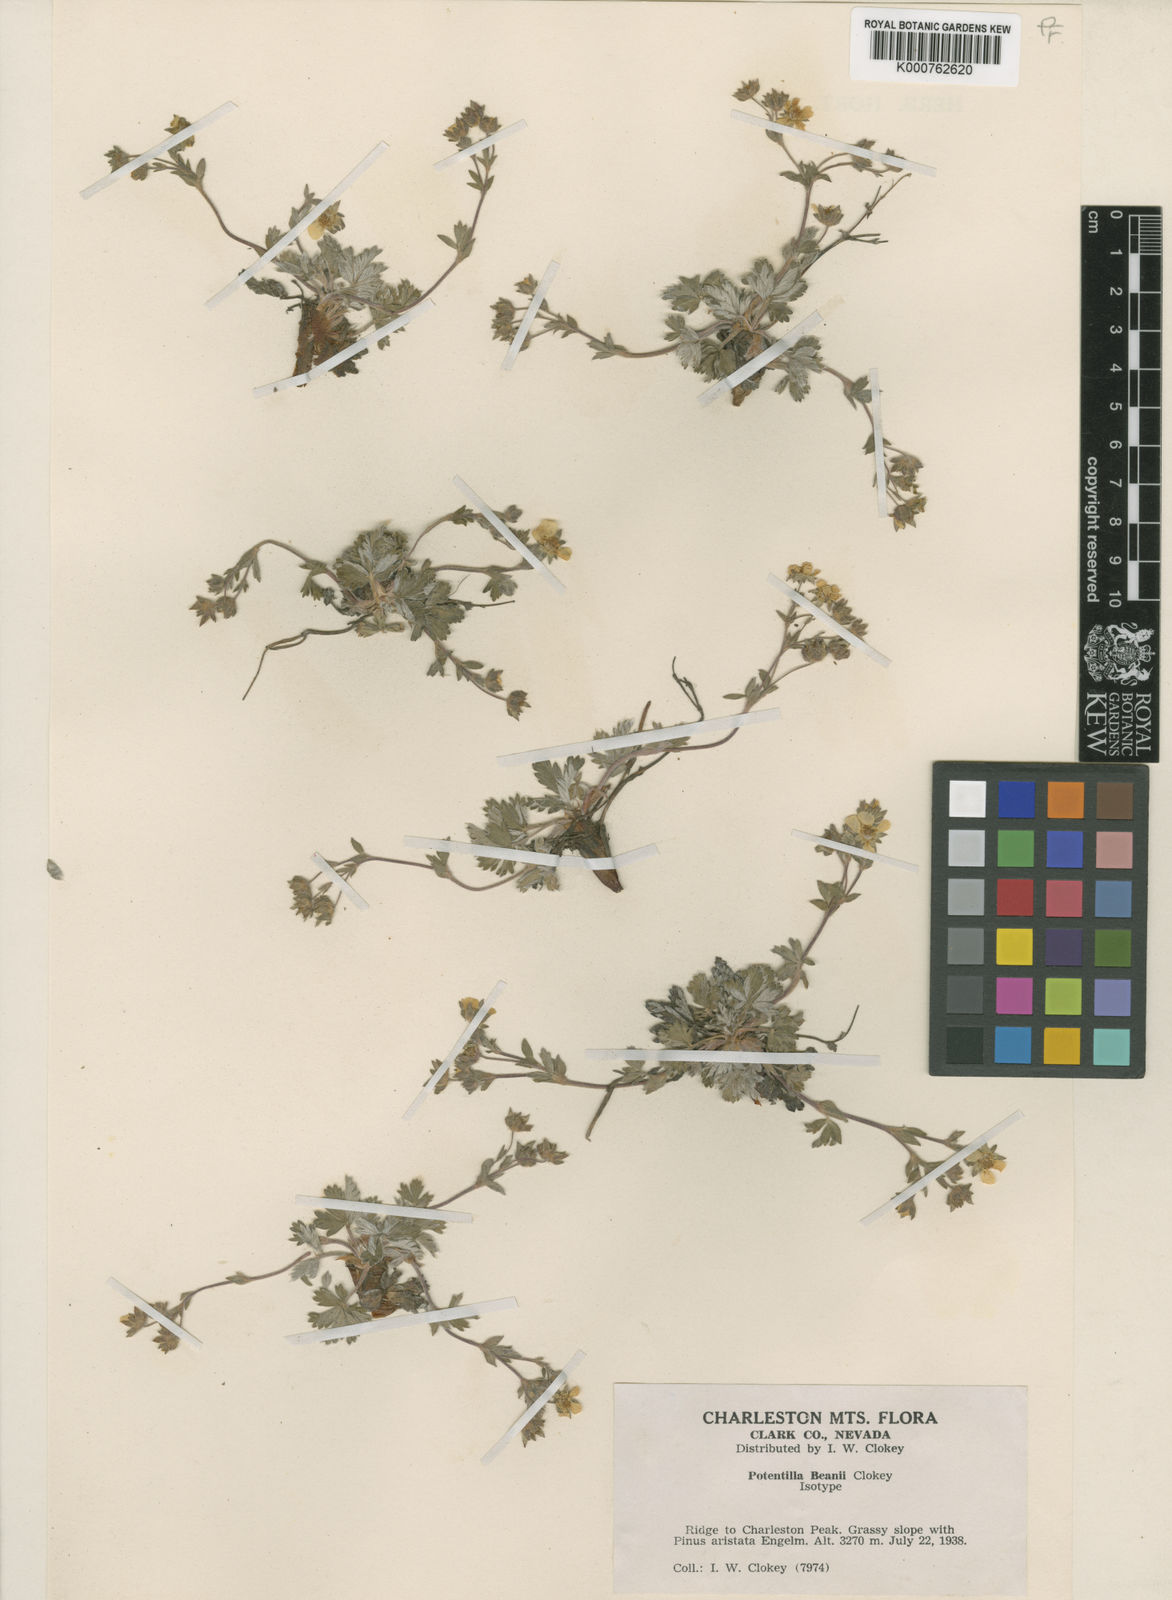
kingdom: Plantae
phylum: Tracheophyta
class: Magnoliopsida
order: Rosales
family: Rosaceae
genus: Potentilla
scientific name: Potentilla concinna
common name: Early cinquefoil
